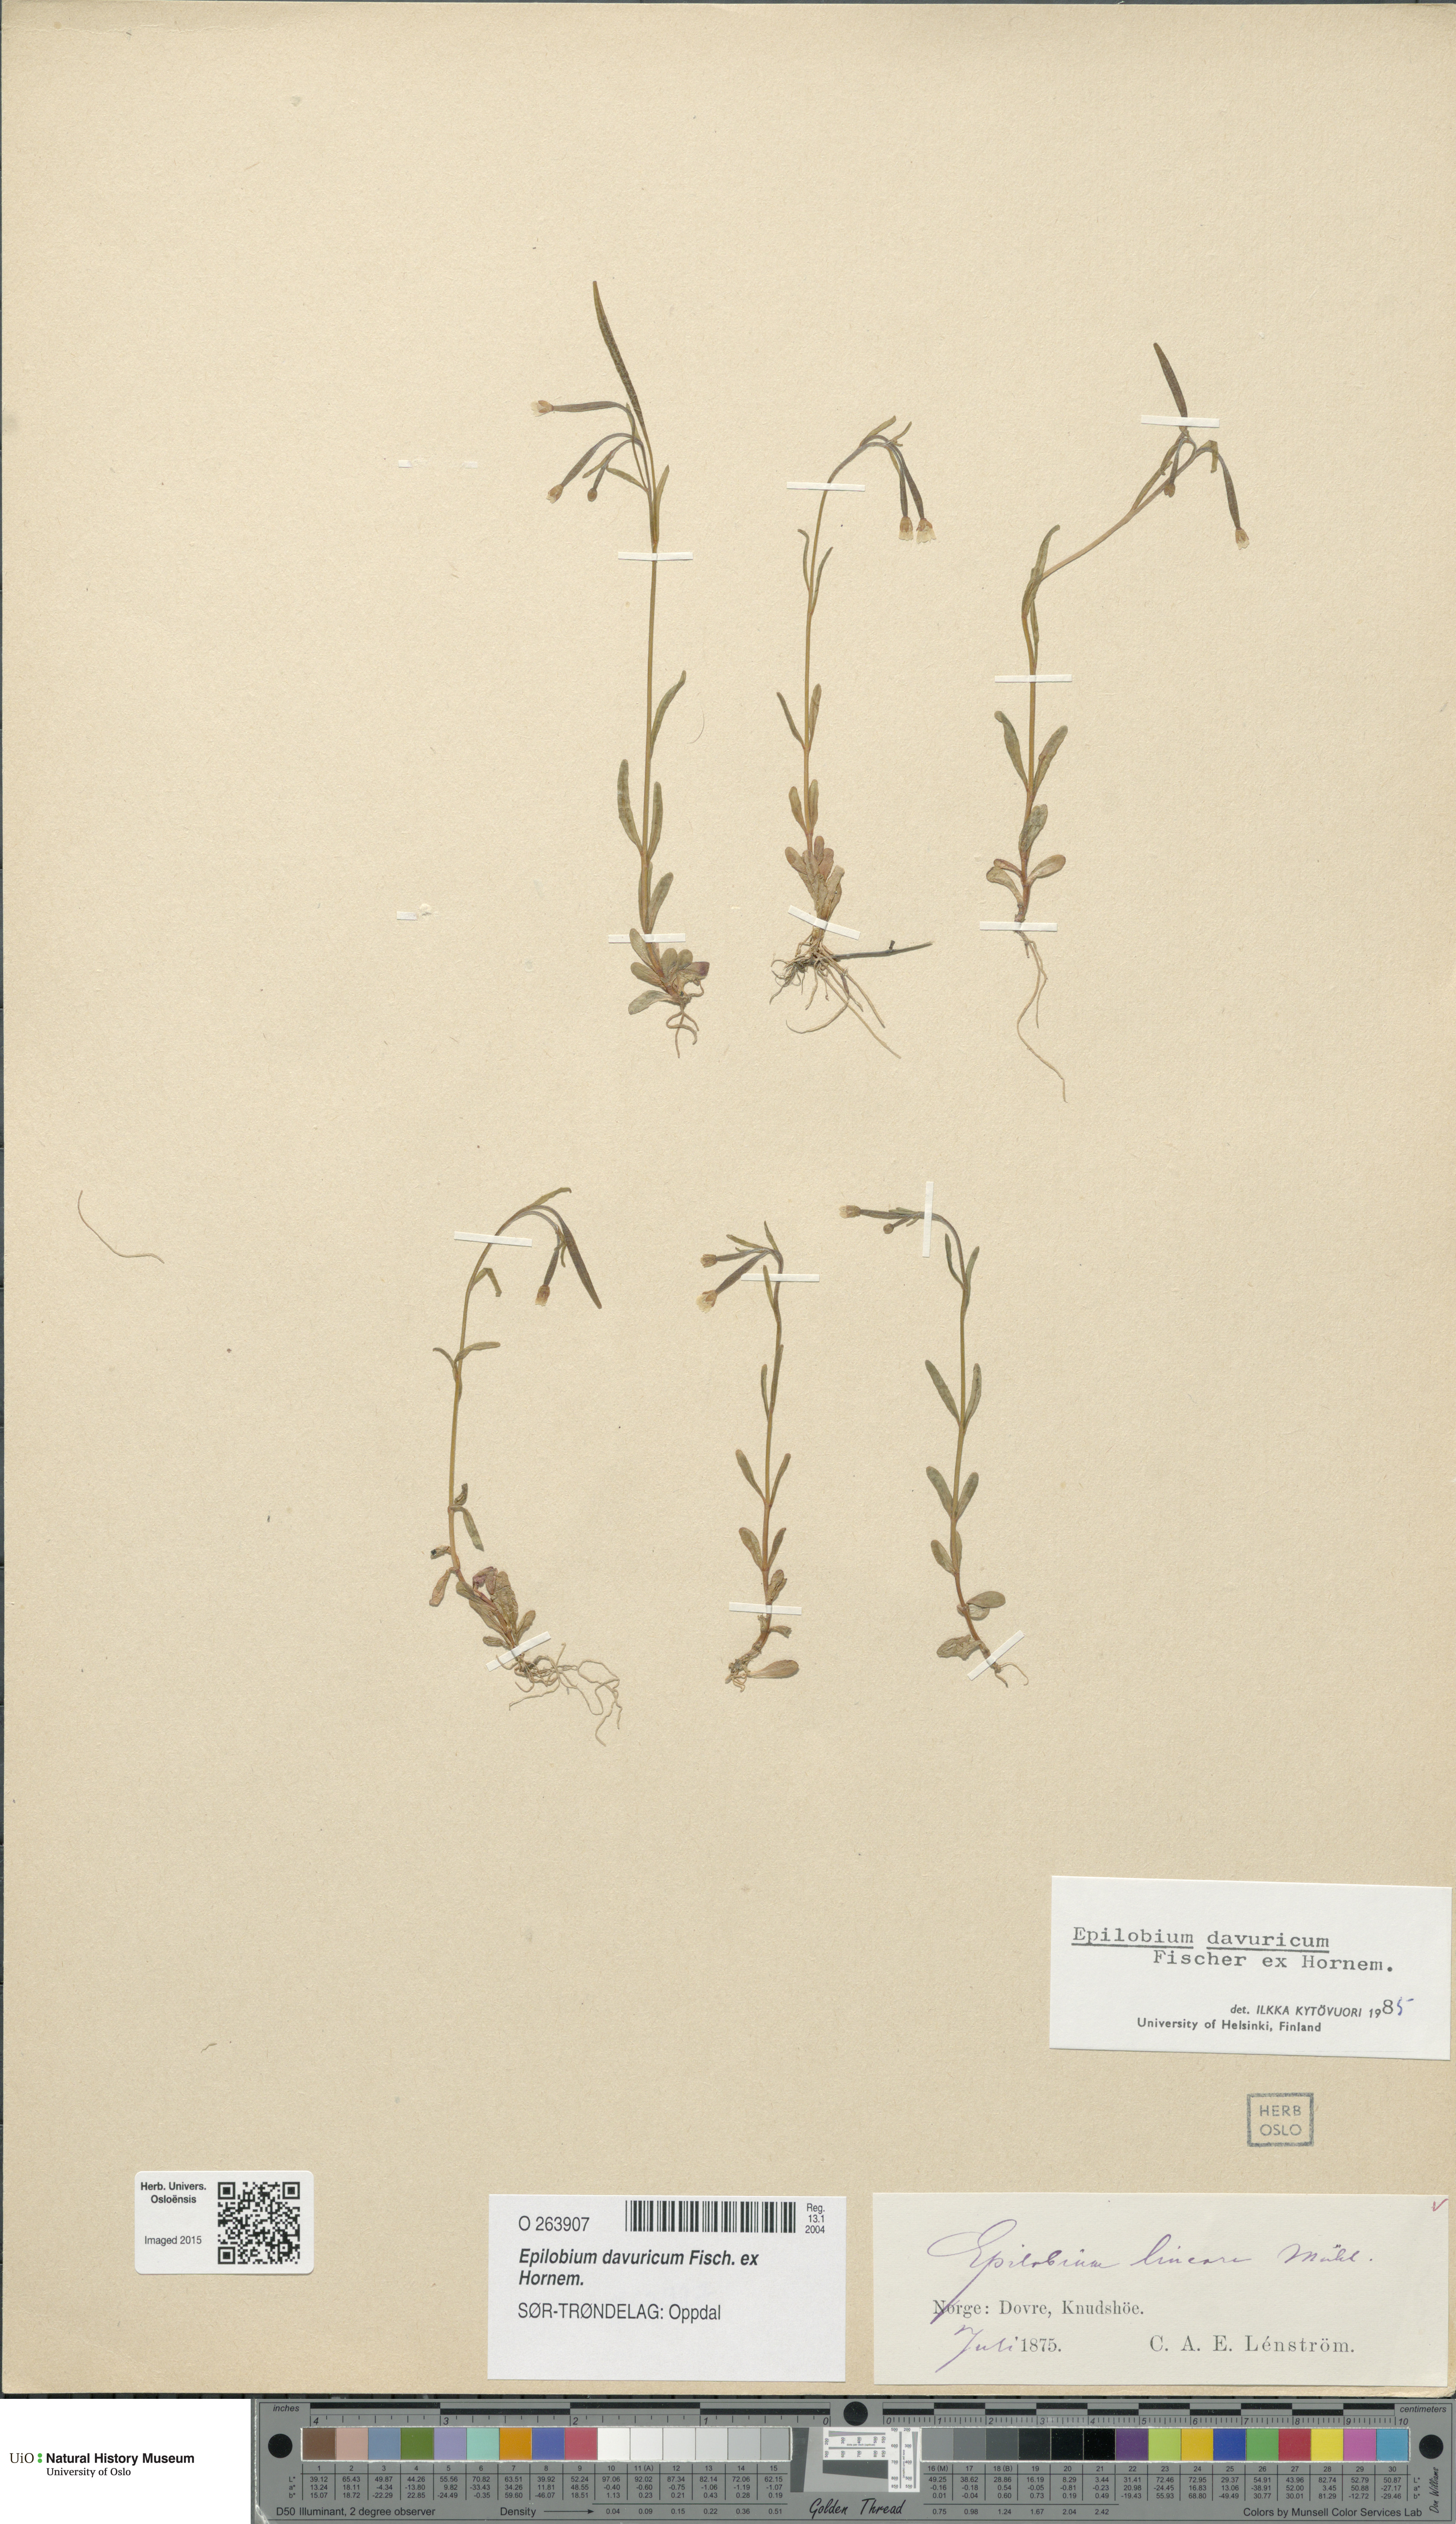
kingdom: Plantae
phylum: Tracheophyta
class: Magnoliopsida
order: Myrtales
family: Onagraceae
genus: Epilobium
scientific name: Epilobium davuricum
